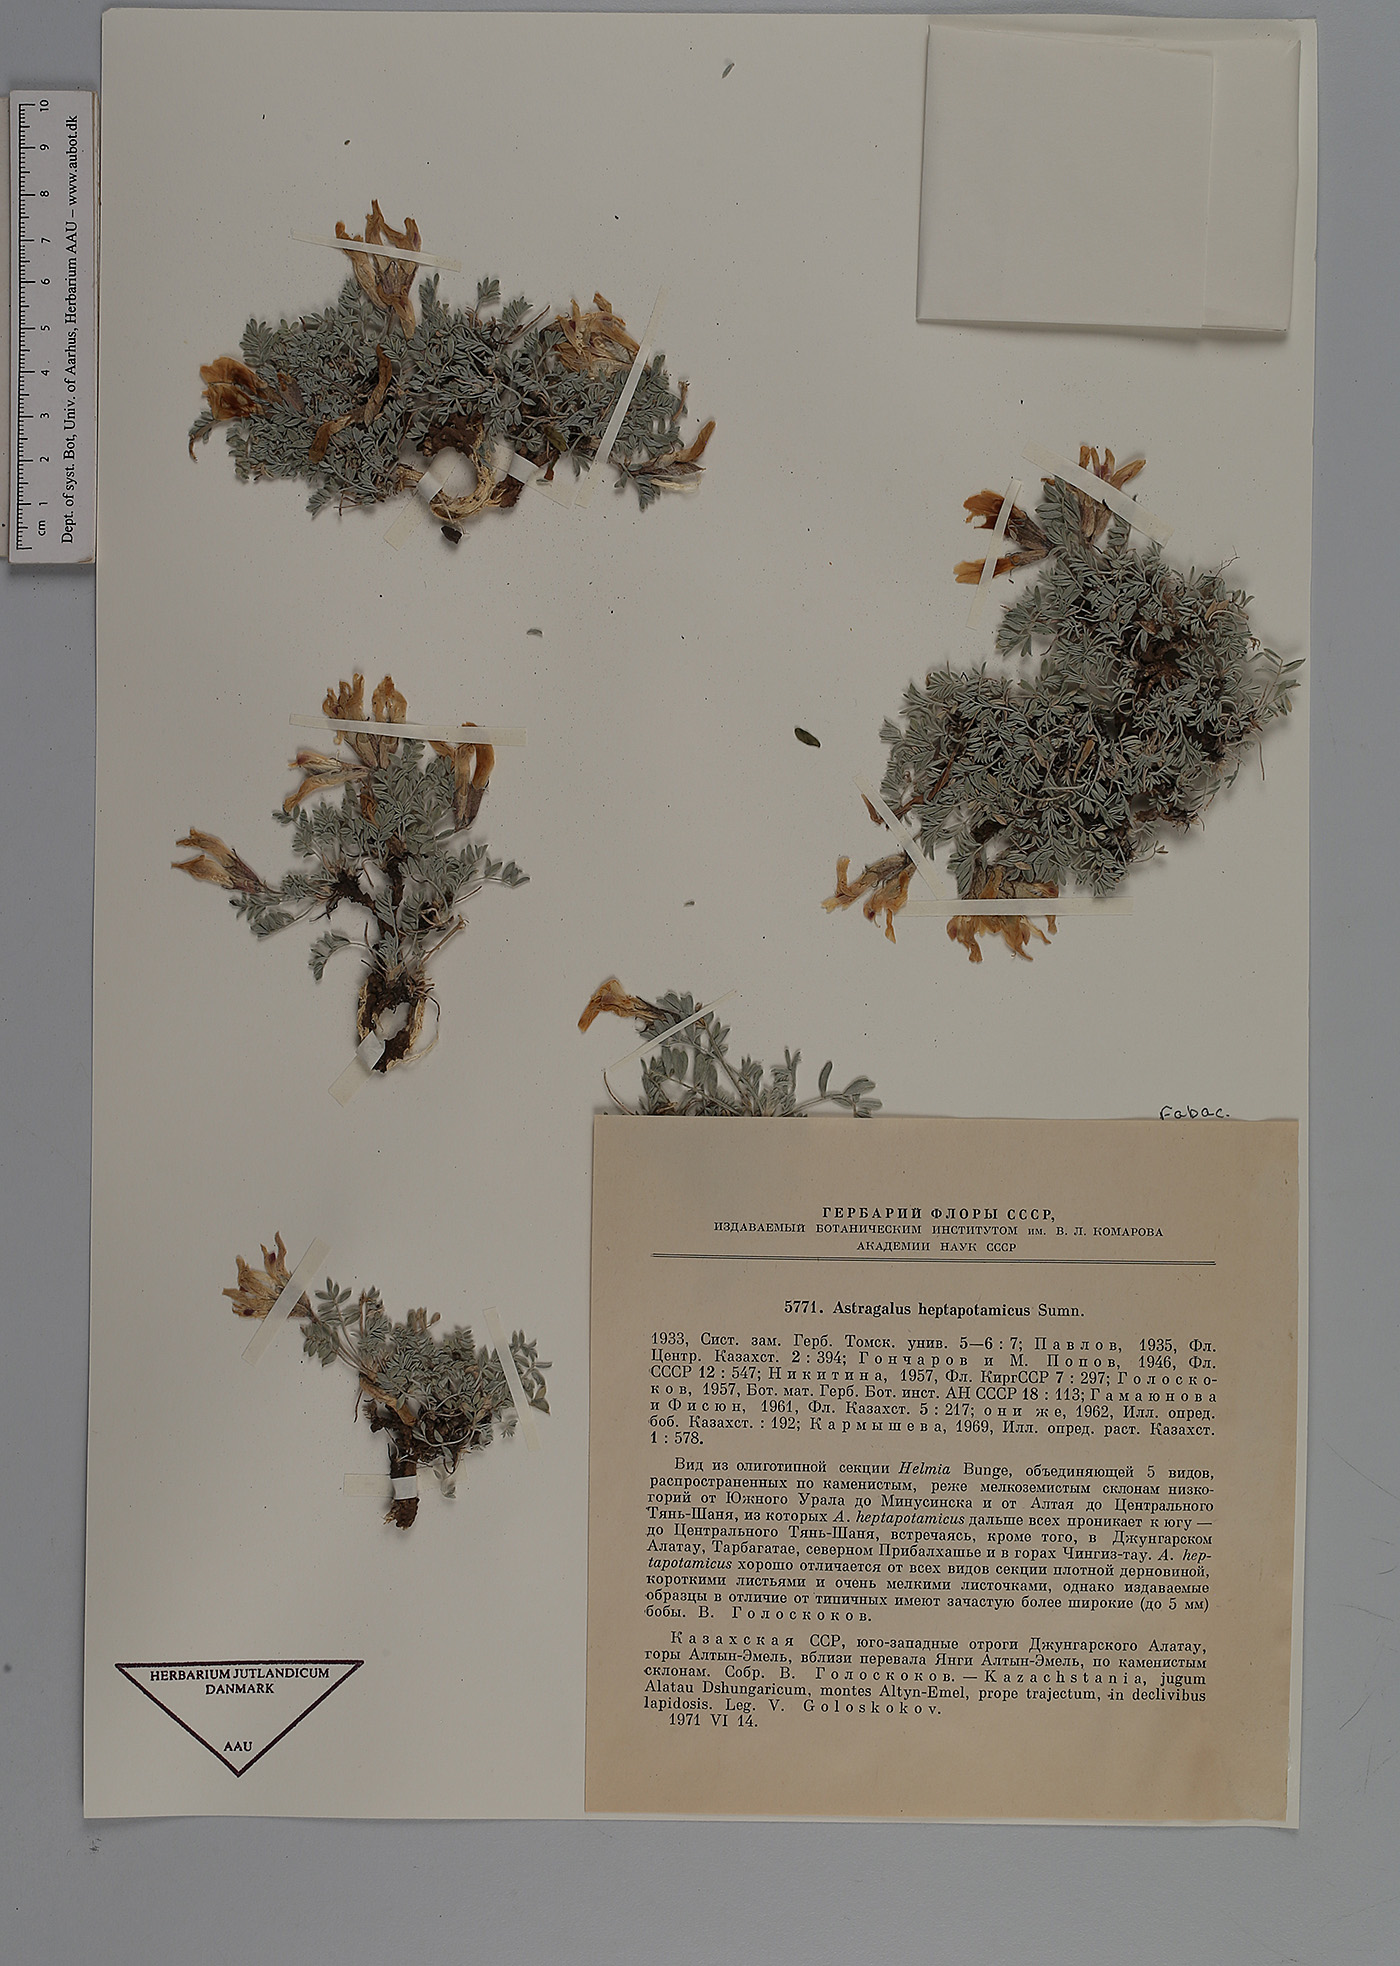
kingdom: Plantae
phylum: Tracheophyta
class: Magnoliopsida
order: Fabales
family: Fabaceae
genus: Astragalus
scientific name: Astragalus heptapotamicus
